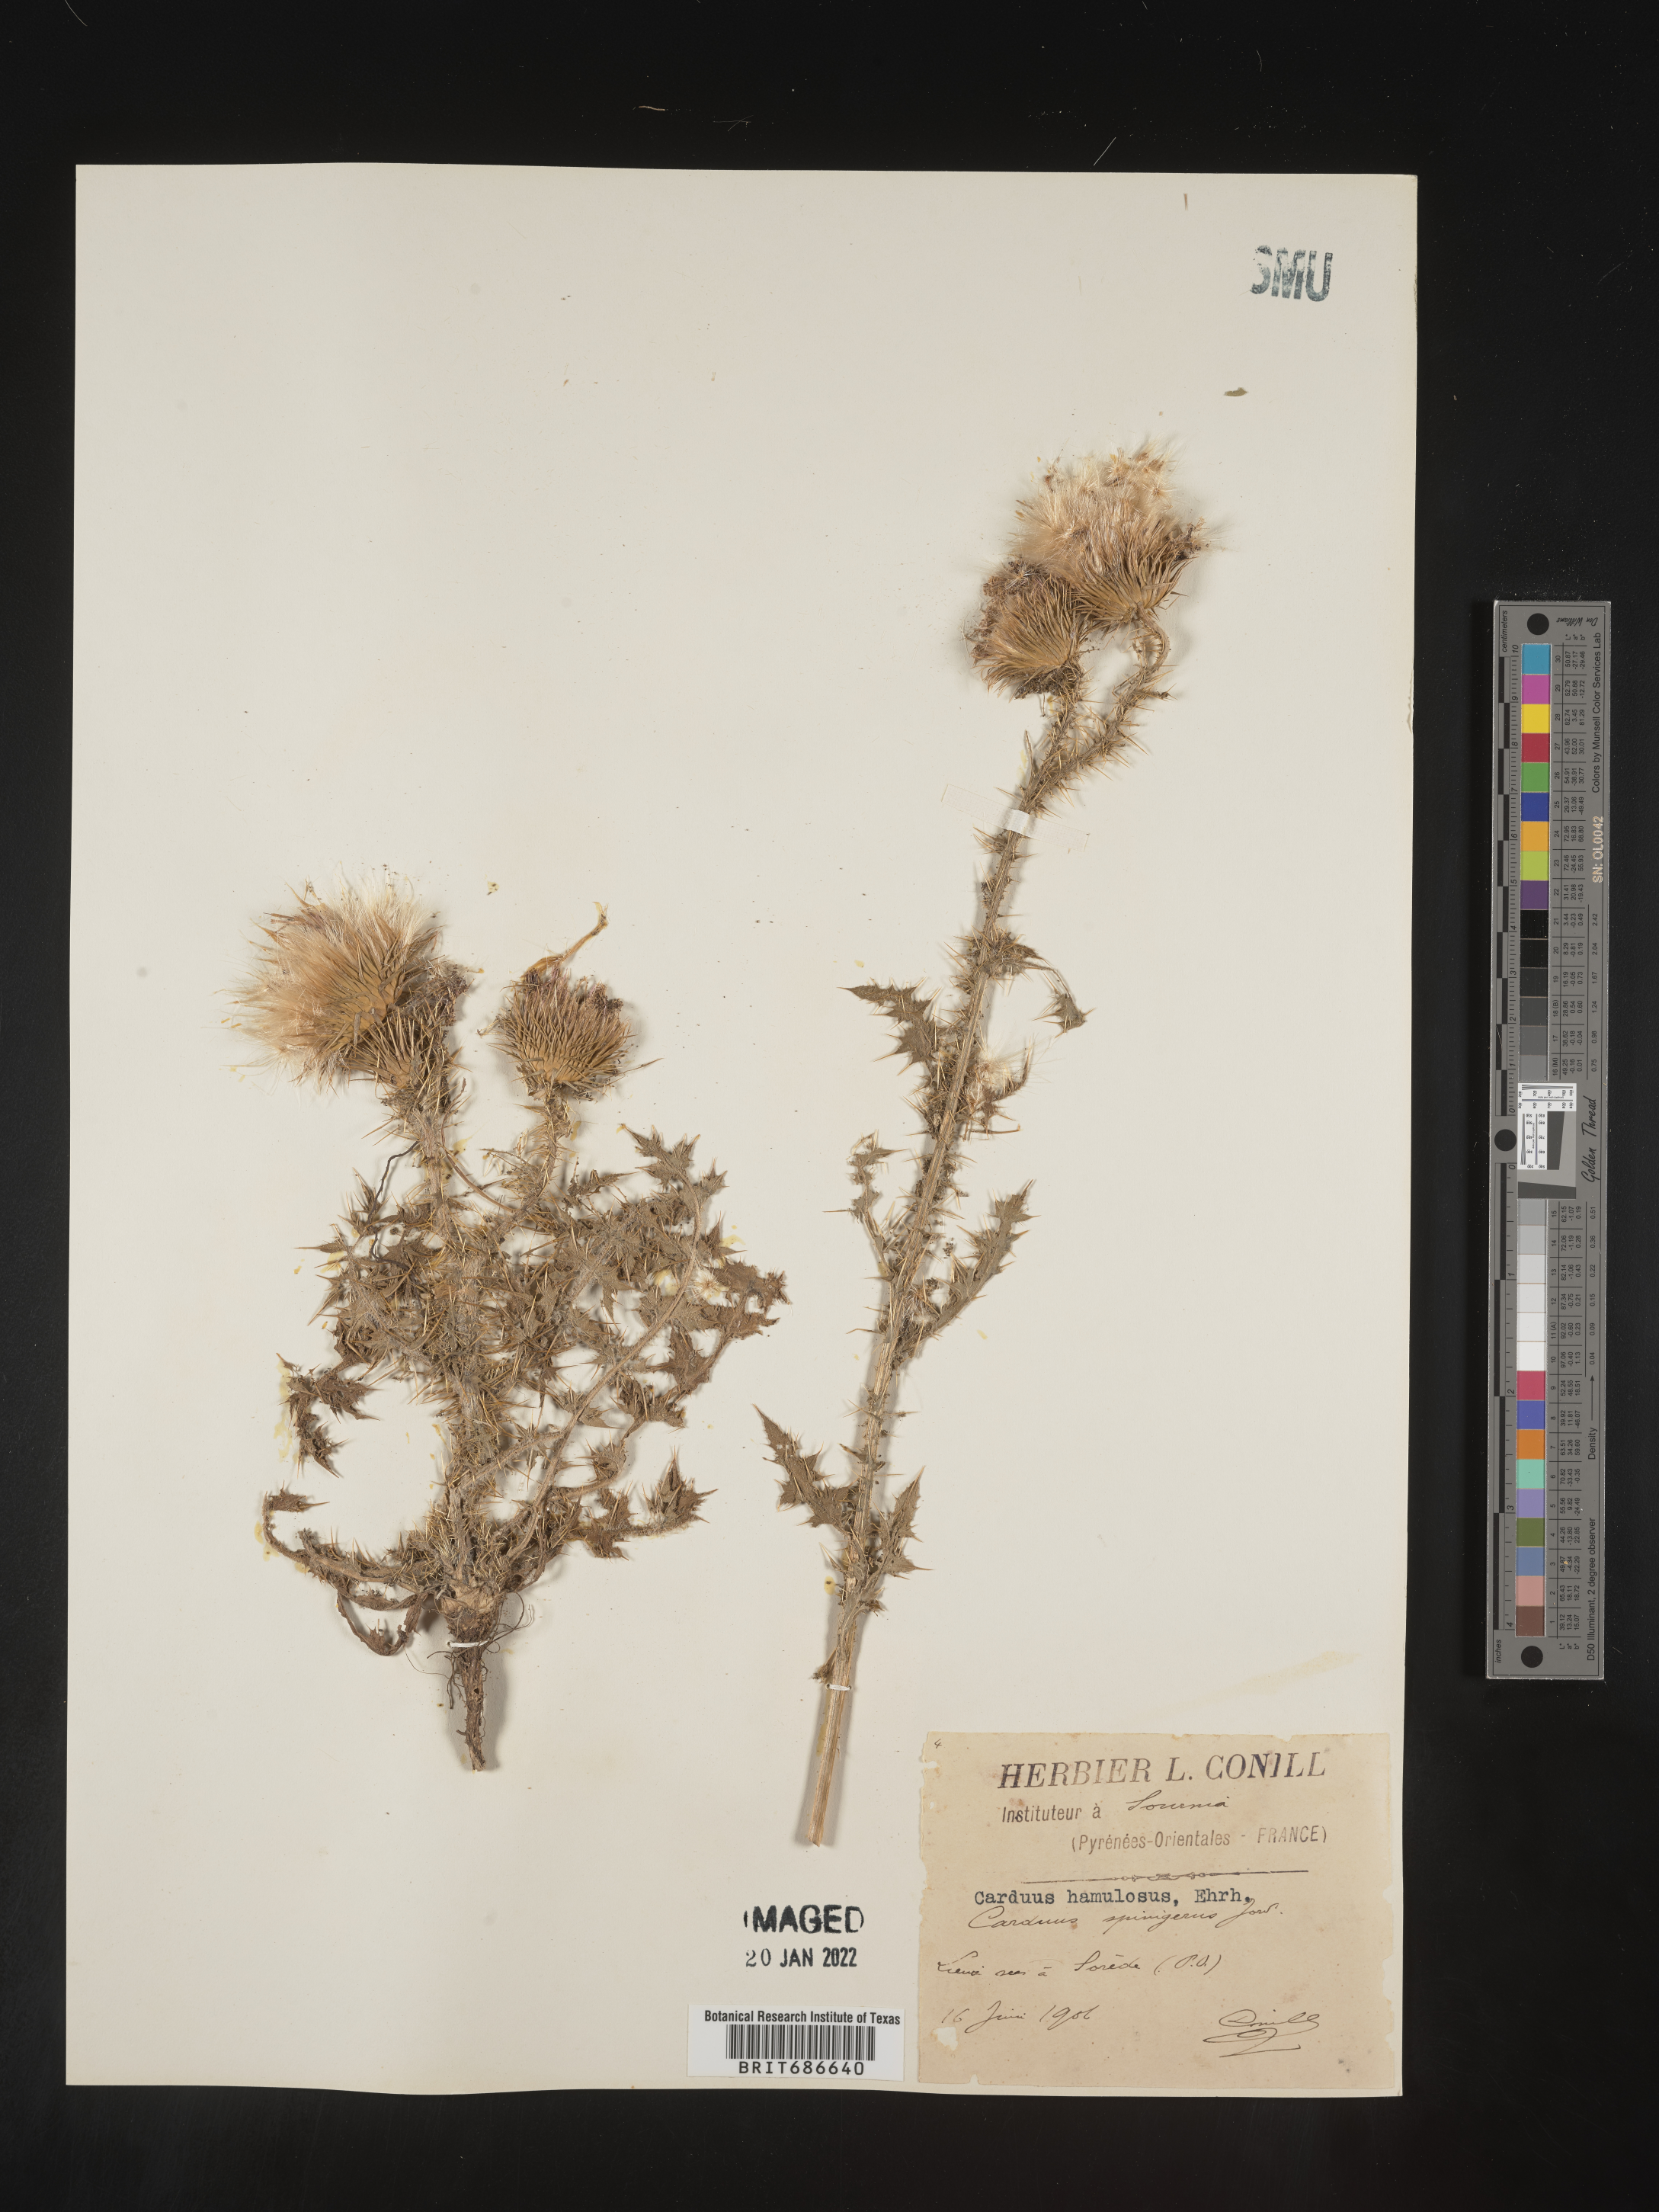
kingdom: Plantae
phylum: Tracheophyta
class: Magnoliopsida
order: Asterales
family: Asteraceae
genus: Carduus
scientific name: Carduus
